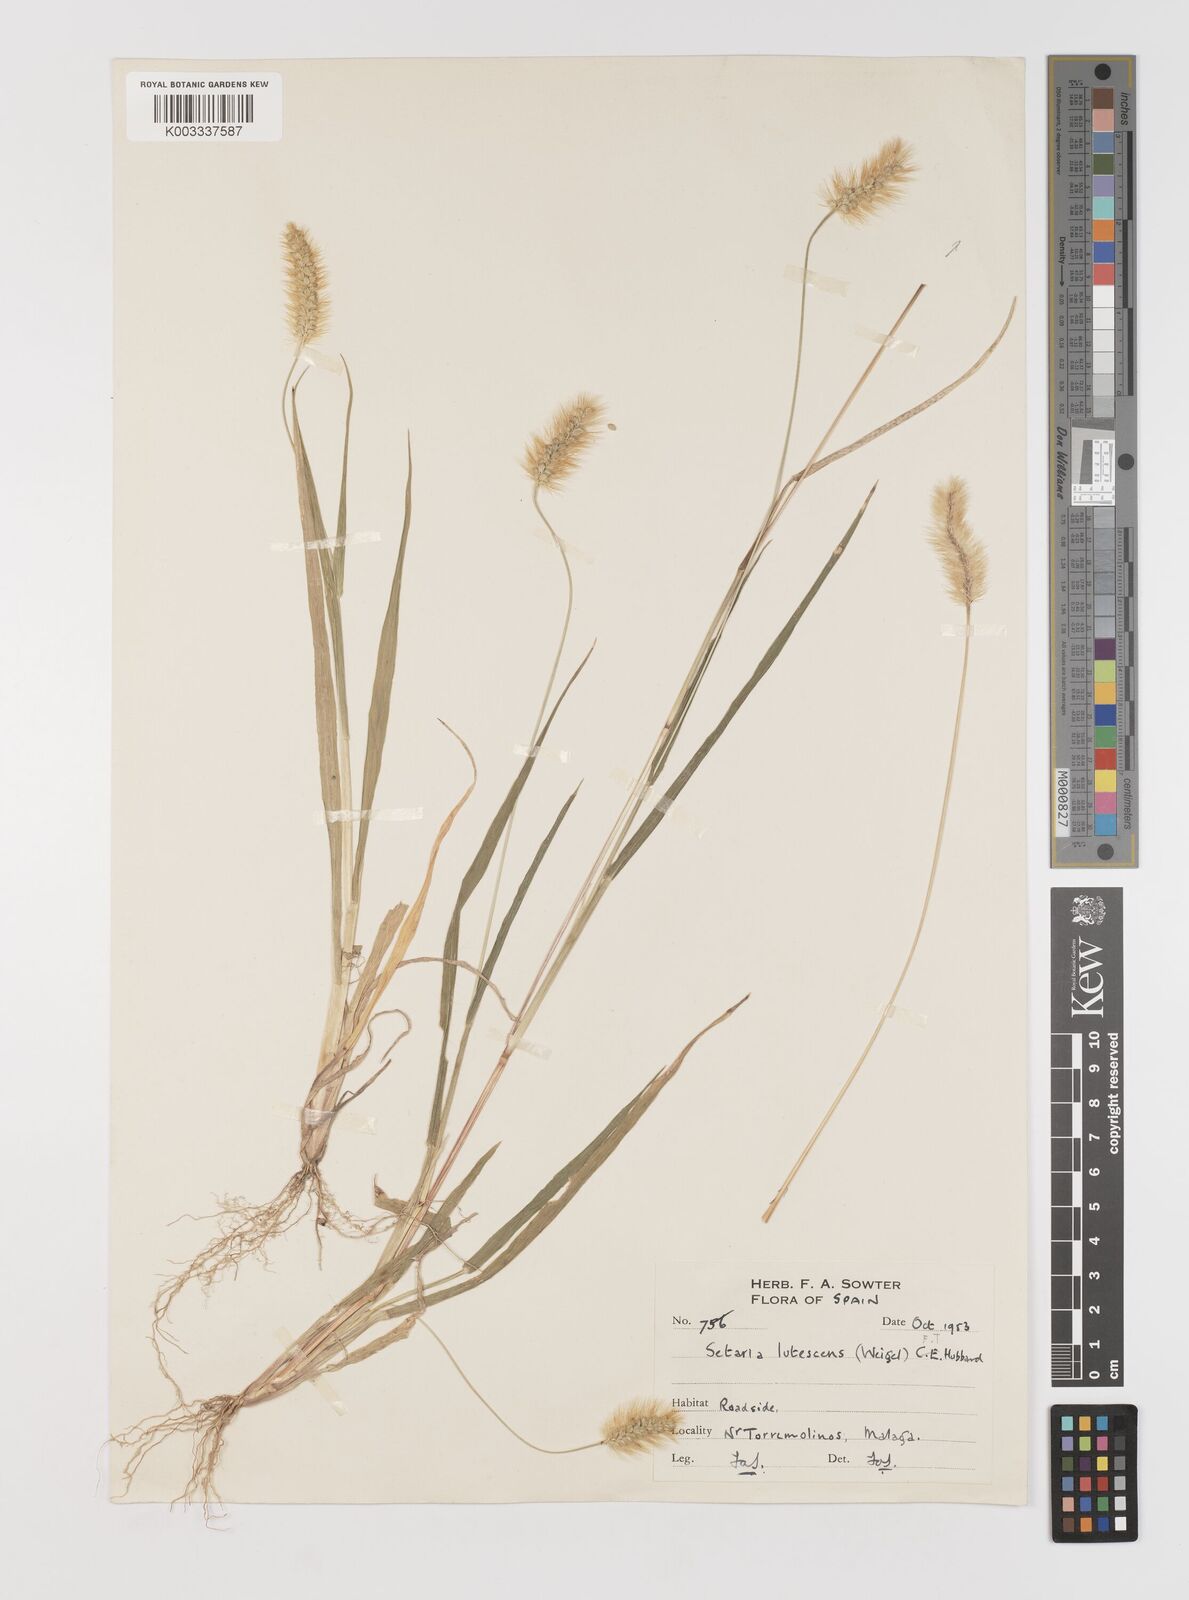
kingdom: Plantae
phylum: Tracheophyta
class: Liliopsida
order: Poales
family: Poaceae
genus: Setaria
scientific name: Setaria pumila
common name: Yellow bristle-grass
